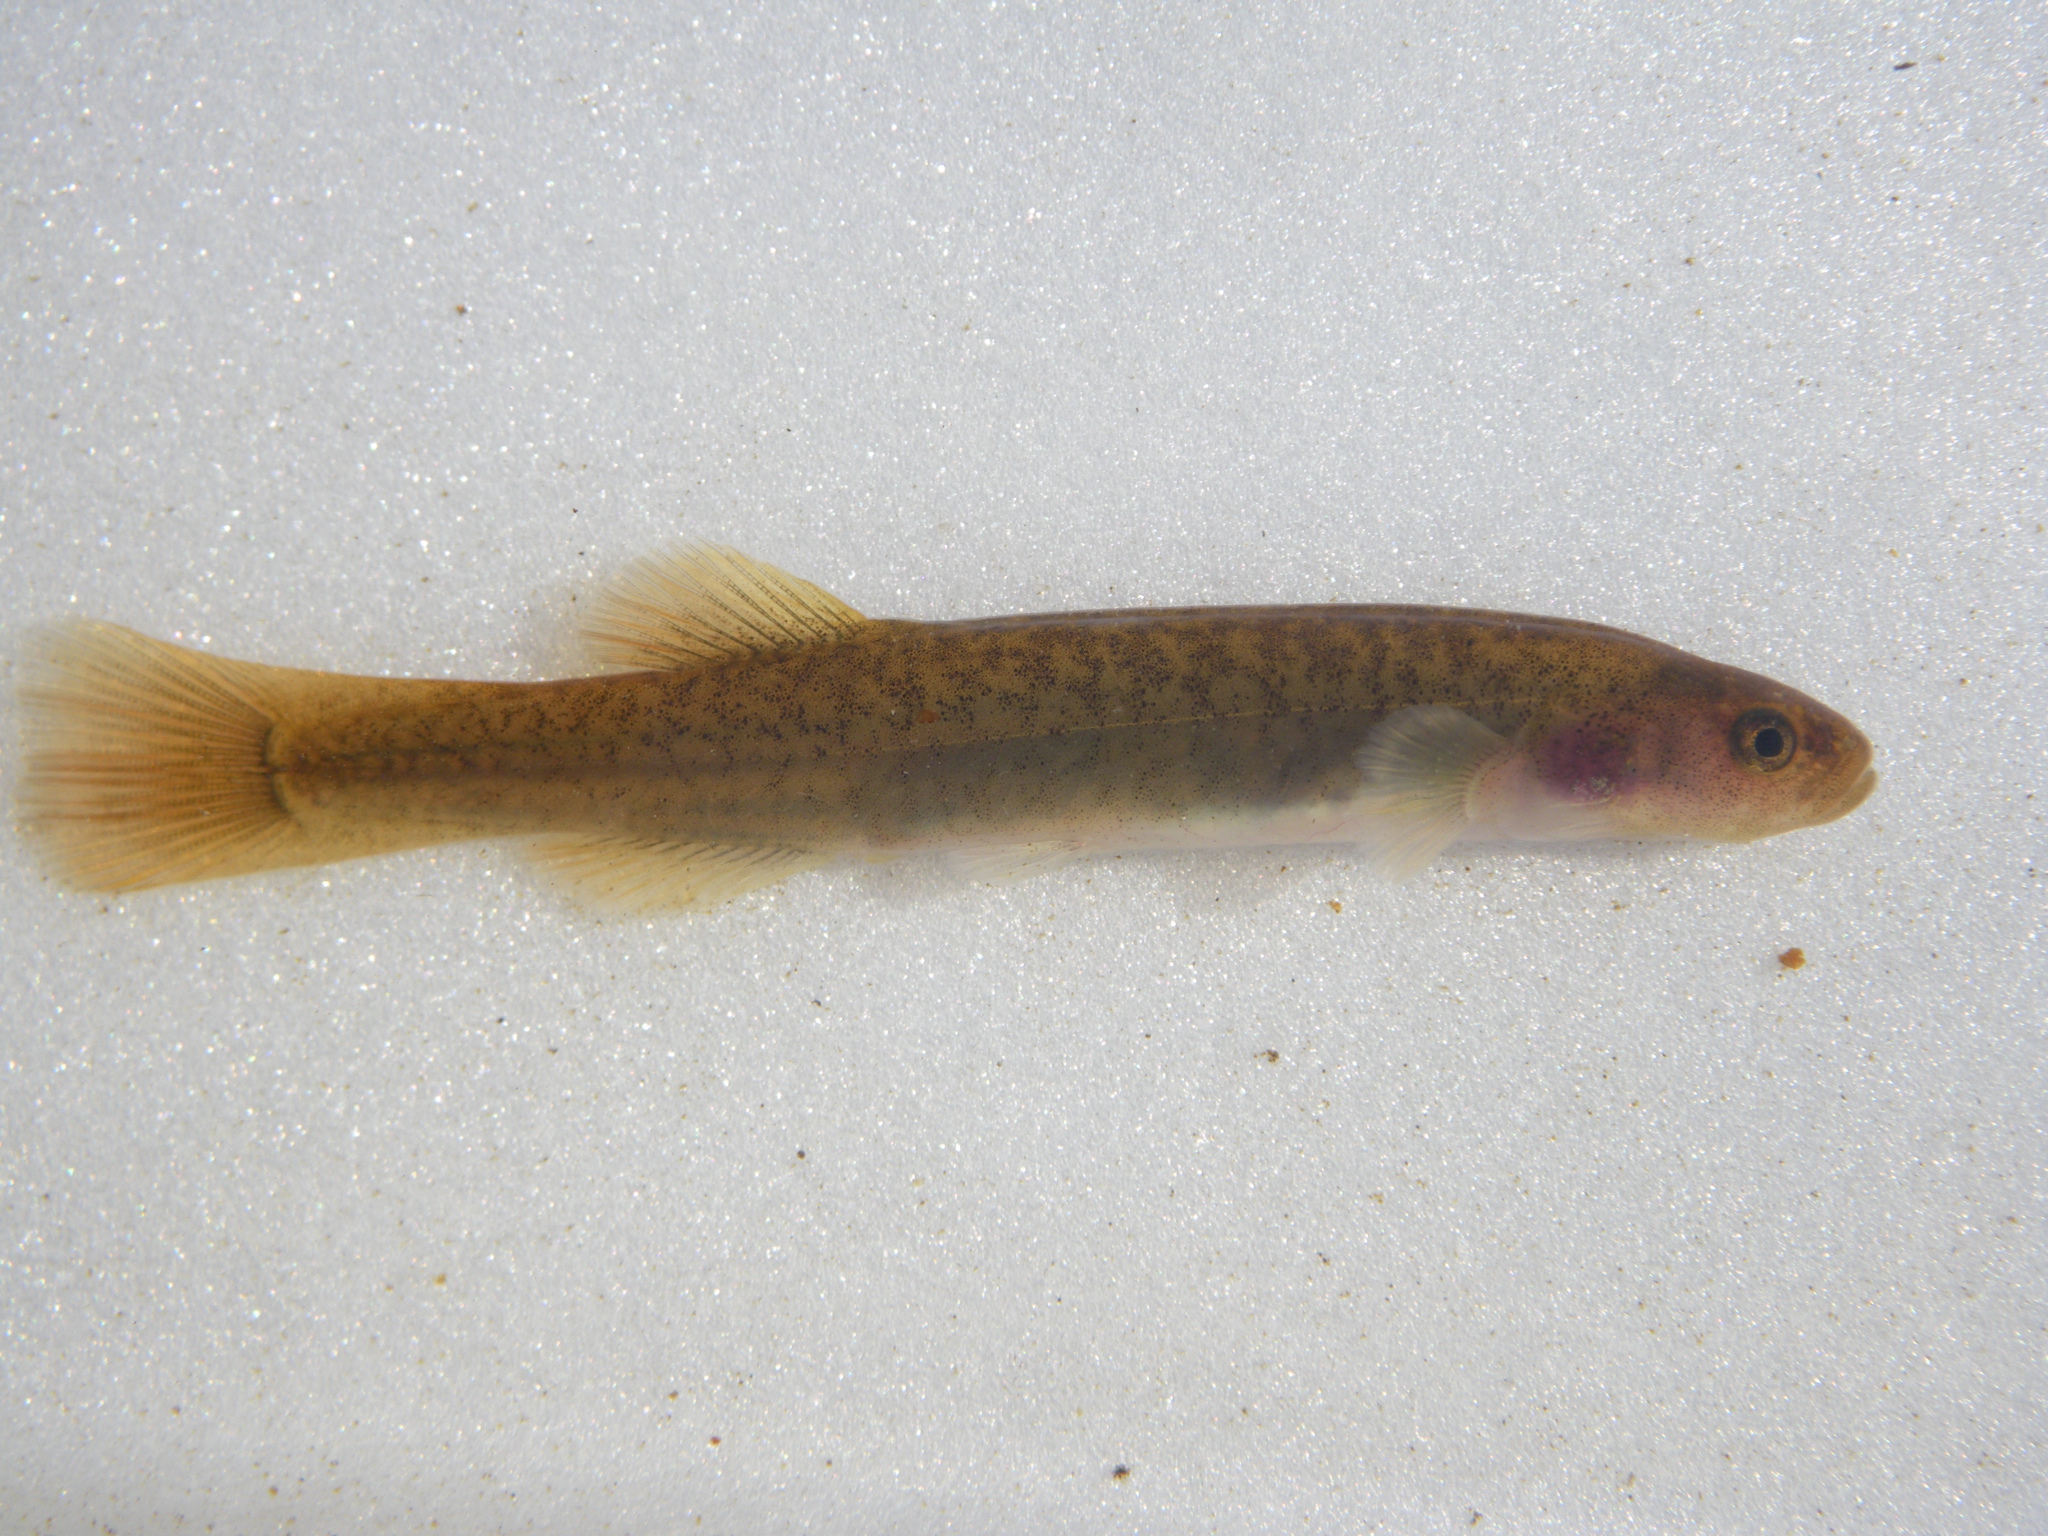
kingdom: Animalia
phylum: Chordata
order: Osmeriformes
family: Galaxiidae
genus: Galaxias
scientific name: Galaxias
